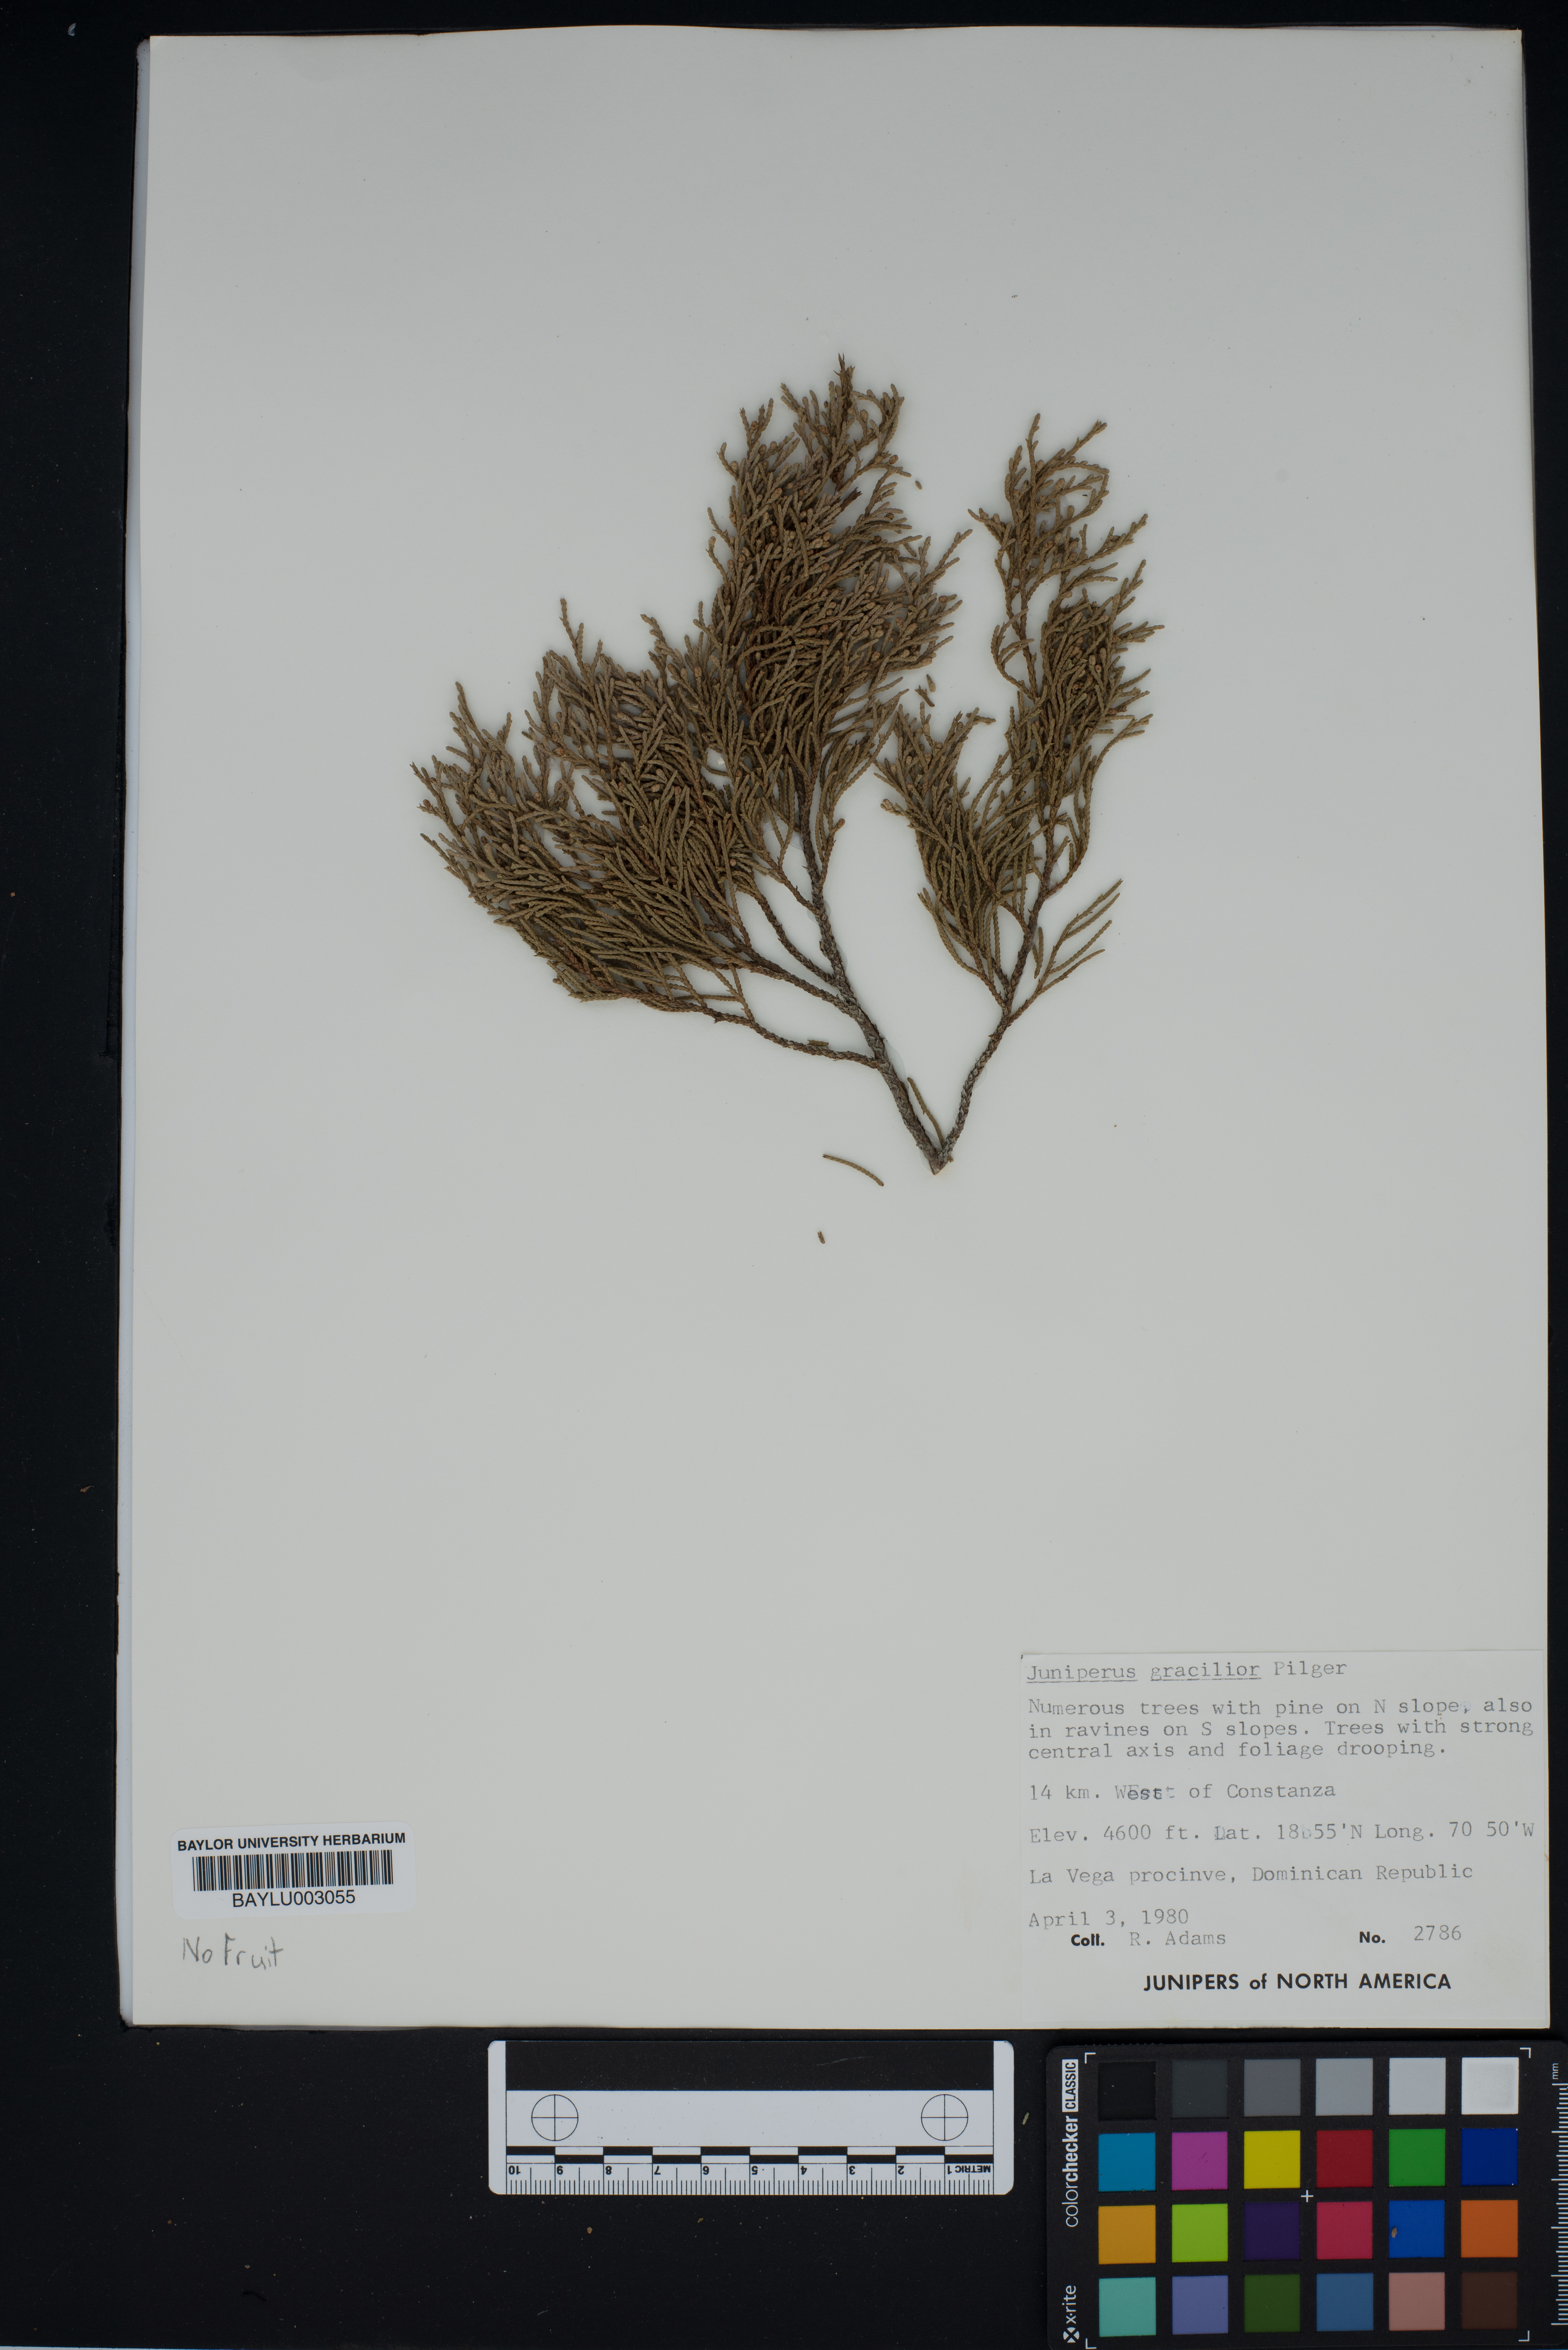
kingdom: Plantae
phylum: Tracheophyta
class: Pinopsida
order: Pinales
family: Cupressaceae
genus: Juniperus
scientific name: Juniperus gracilior
